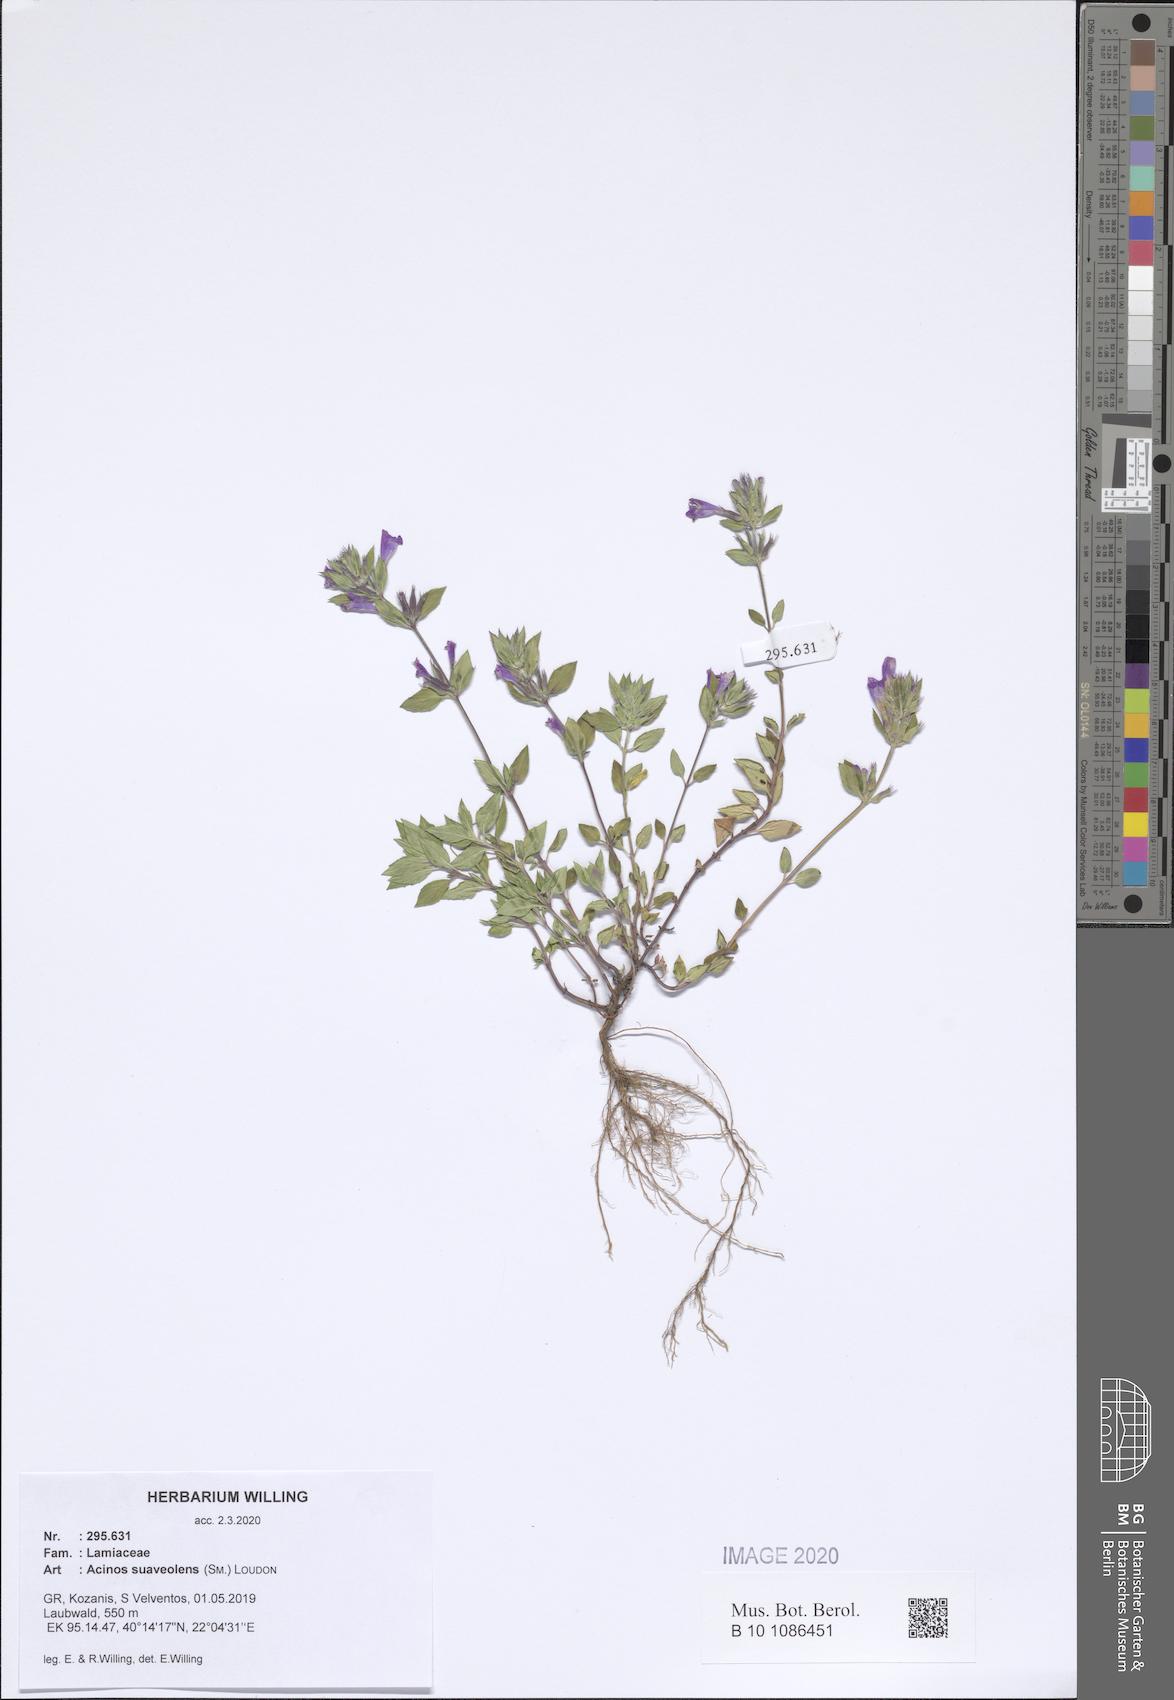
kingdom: Plantae
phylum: Tracheophyta
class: Magnoliopsida
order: Lamiales
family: Lamiaceae
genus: Clinopodium
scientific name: Clinopodium suaveolens
